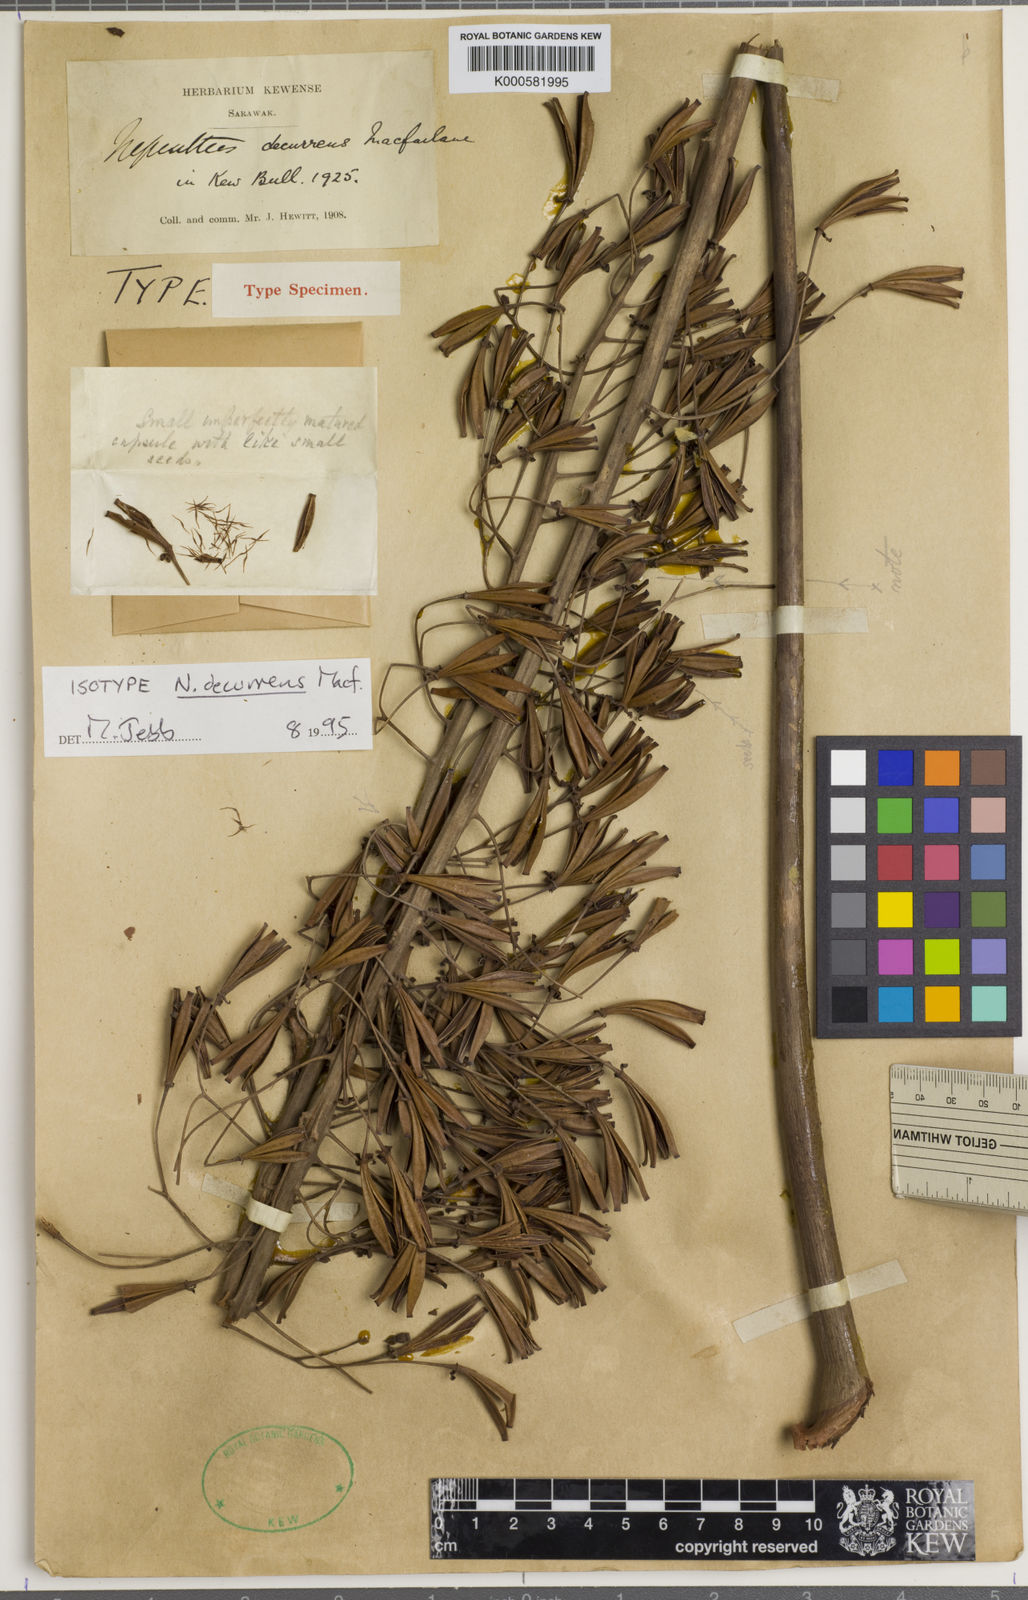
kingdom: Plantae
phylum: Tracheophyta
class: Magnoliopsida
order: Caryophyllales
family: Nepenthaceae
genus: Nepenthes
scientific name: Nepenthes northiana
